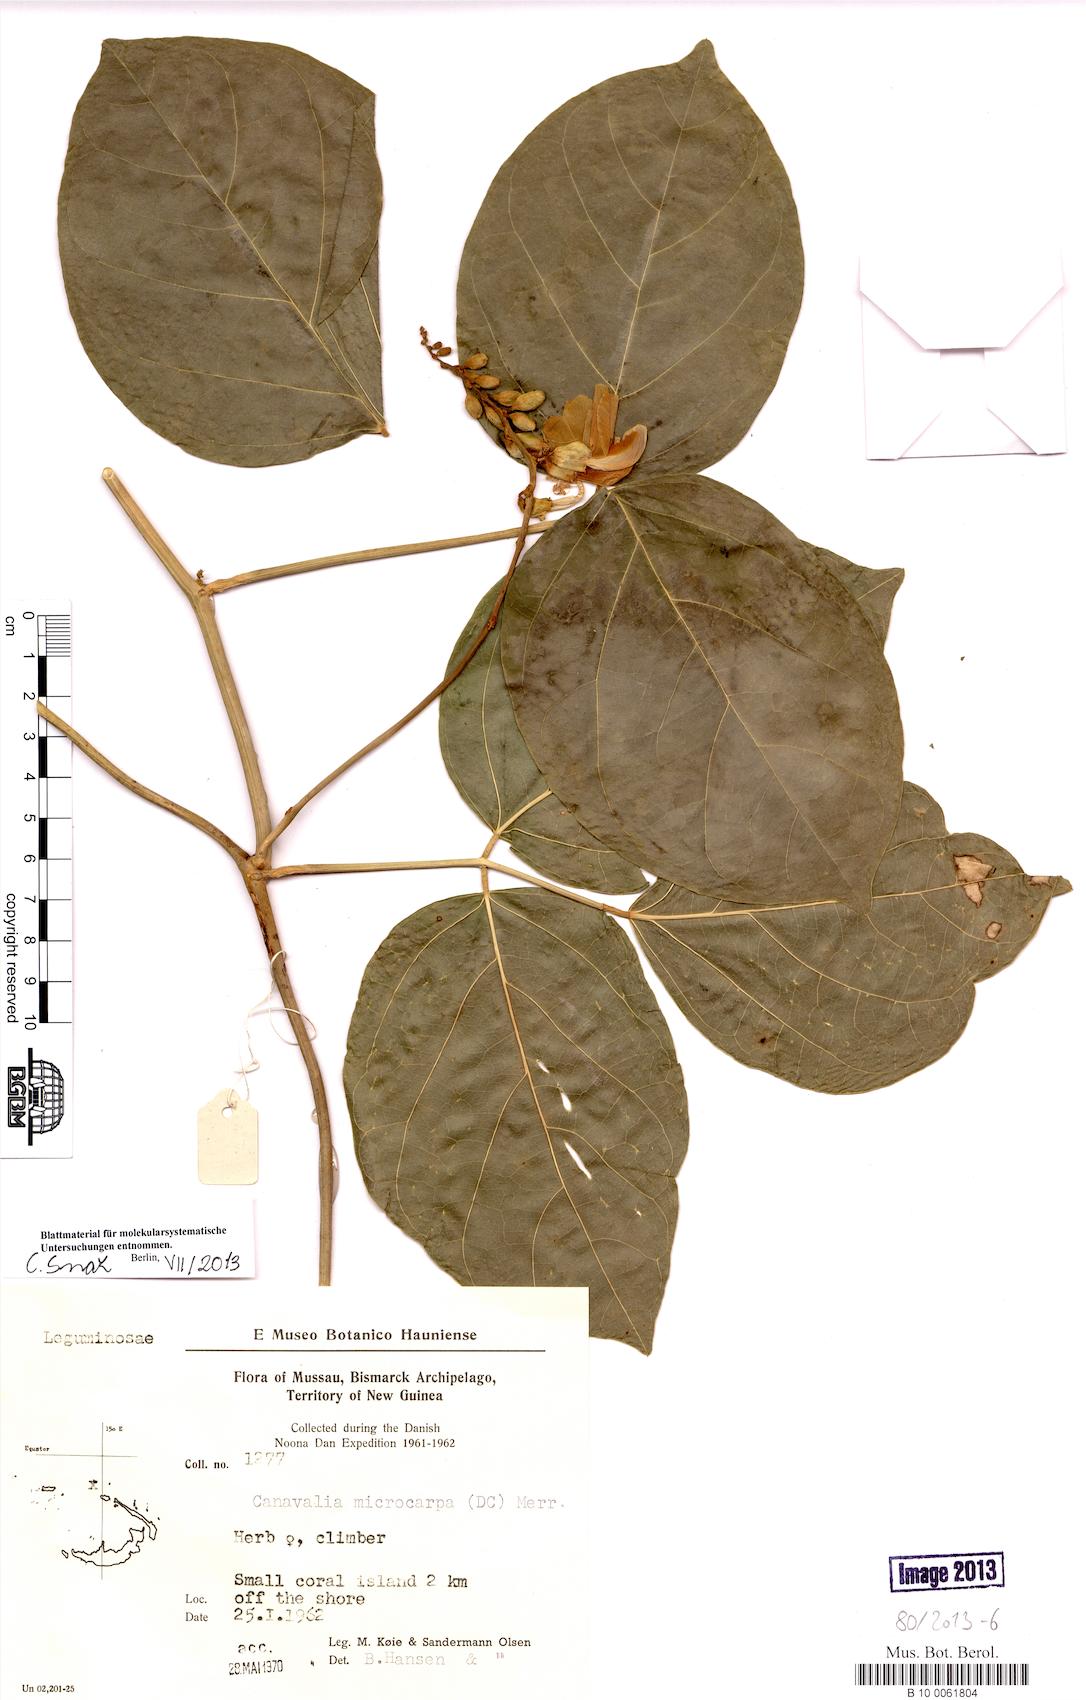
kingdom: Plantae
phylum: Tracheophyta
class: Magnoliopsida
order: Fabales
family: Fabaceae
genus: Canavalia
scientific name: Canavalia cathartica
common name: Maunaloa
